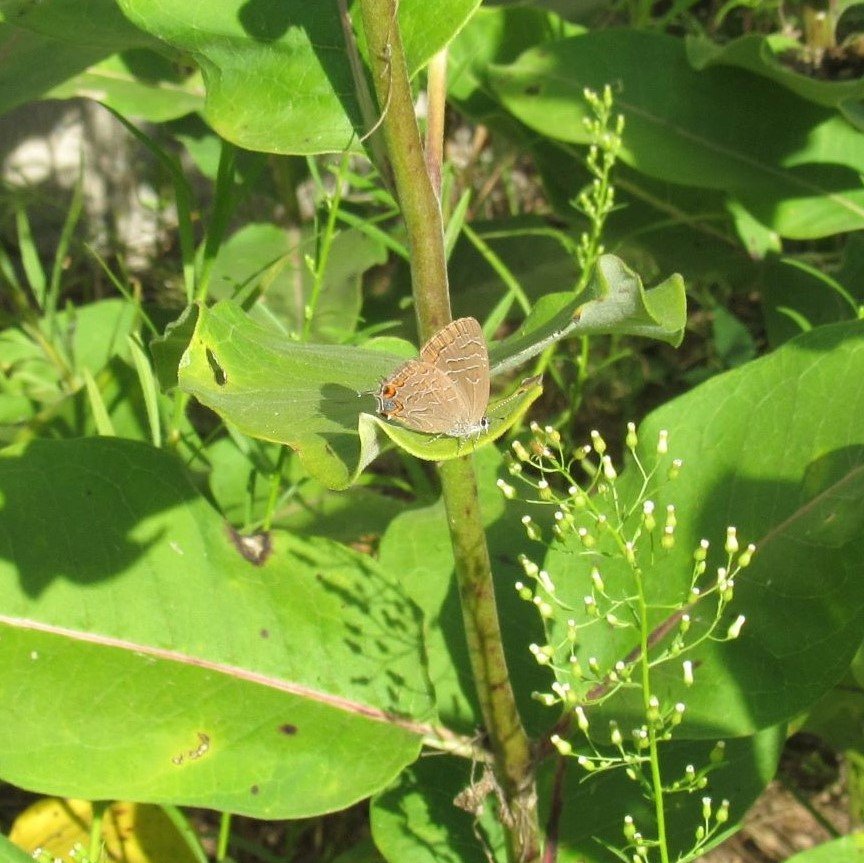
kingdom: Animalia
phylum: Arthropoda
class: Insecta
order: Lepidoptera
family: Lycaenidae
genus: Satyrium
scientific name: Satyrium liparops
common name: Striped Hairstreak
